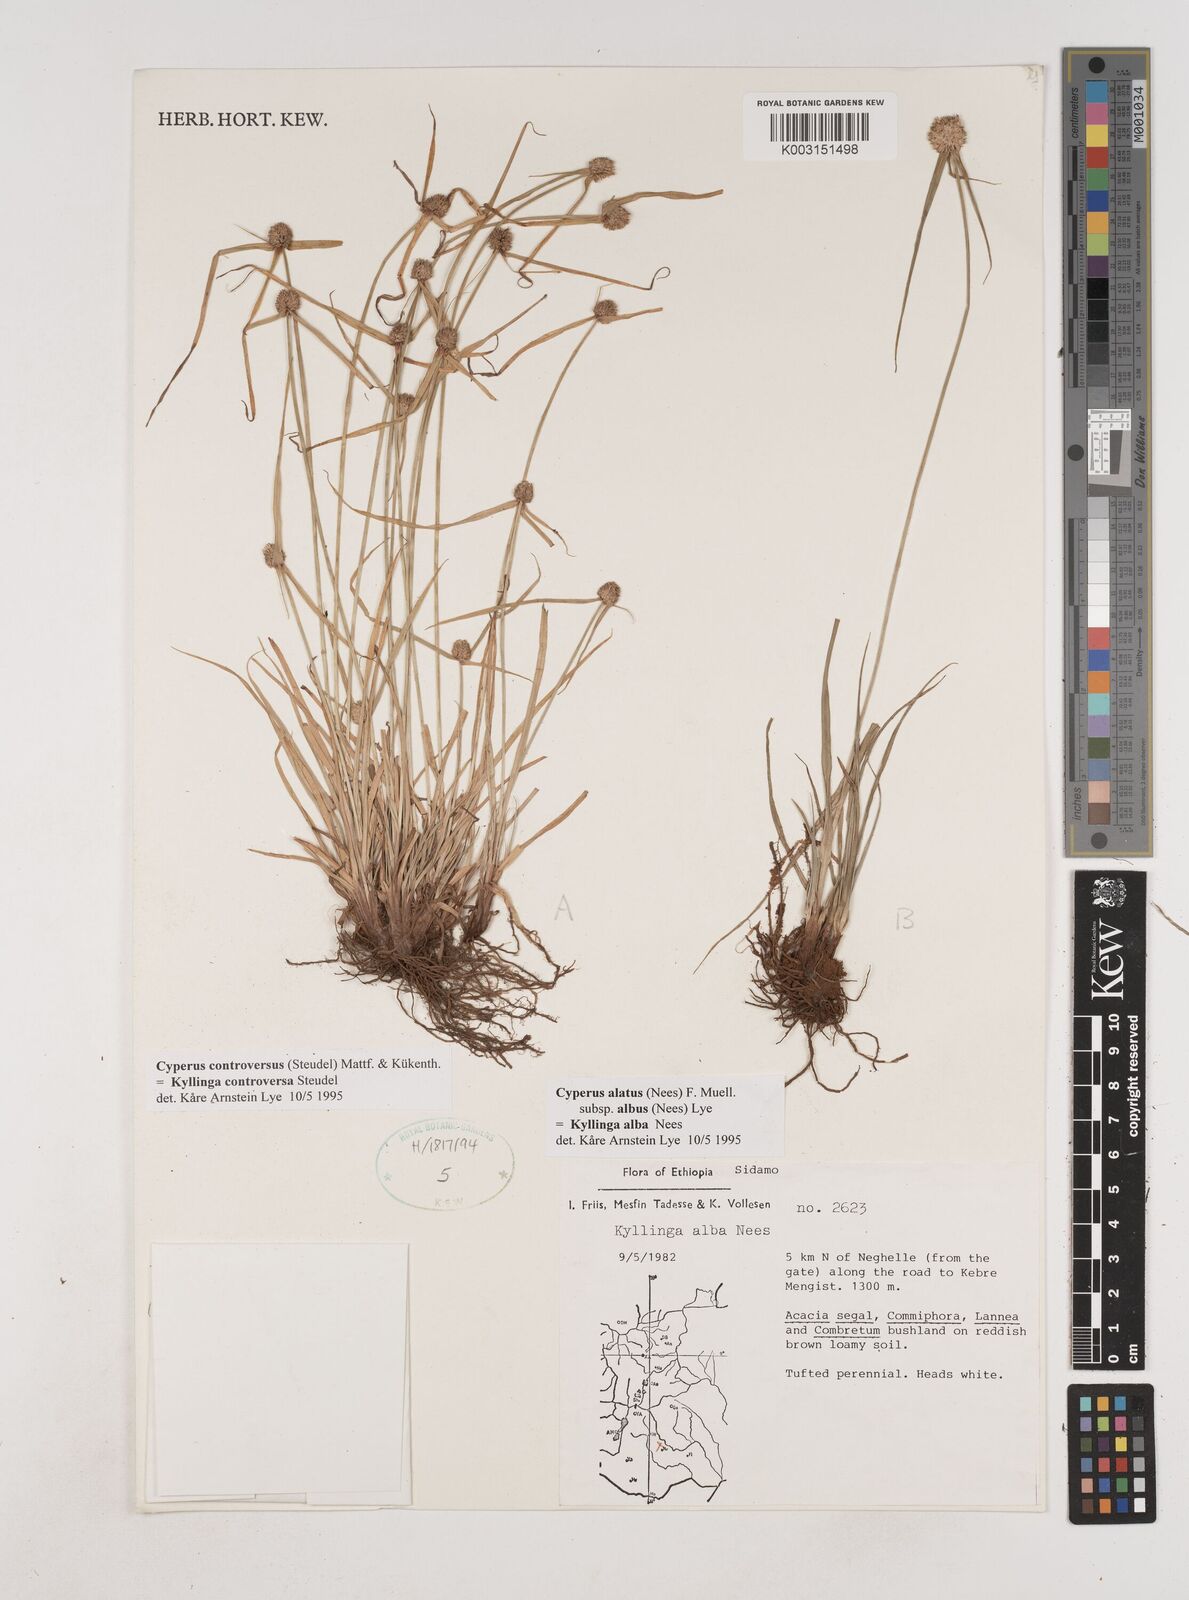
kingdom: Plantae
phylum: Tracheophyta
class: Liliopsida
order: Poales
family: Cyperaceae
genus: Cyperus
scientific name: Cyperus controversus
